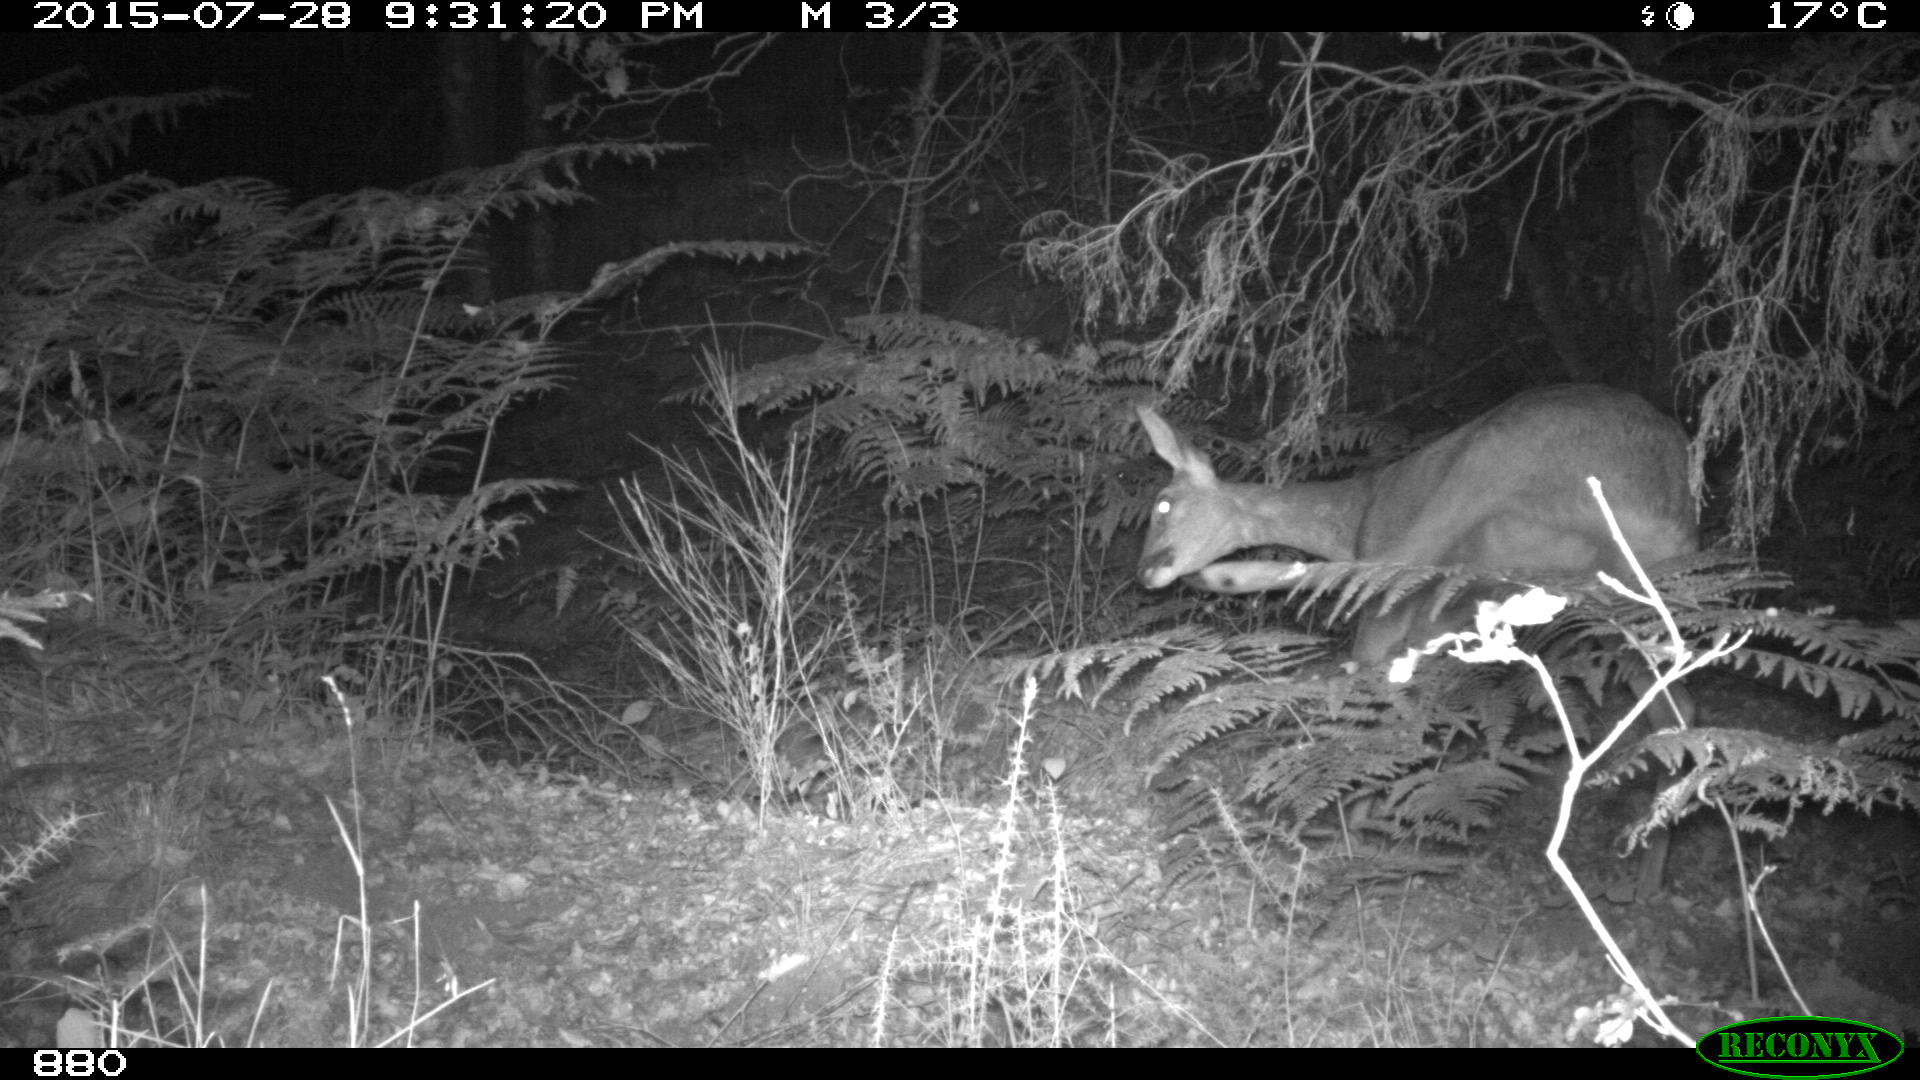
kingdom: Animalia
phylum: Chordata
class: Mammalia
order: Artiodactyla
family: Cervidae
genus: Capreolus
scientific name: Capreolus capreolus
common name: Western roe deer
